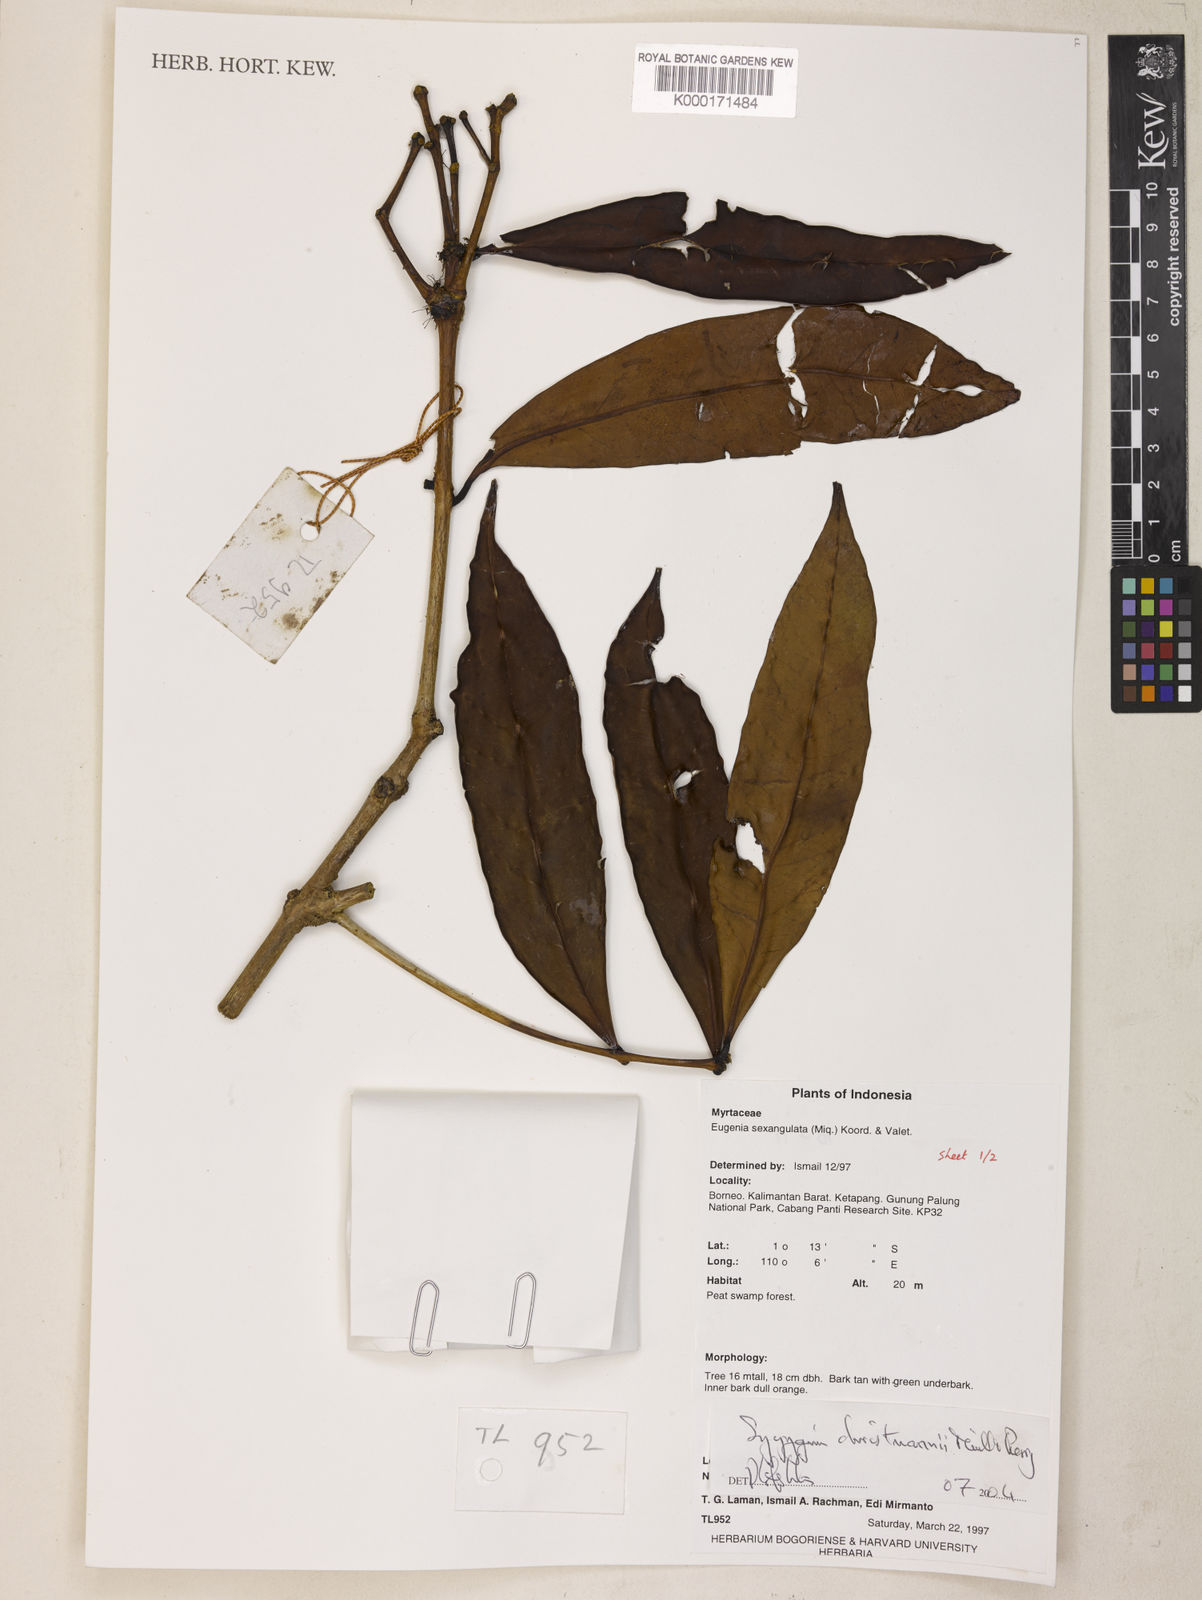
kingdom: Plantae
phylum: Tracheophyta
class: Magnoliopsida
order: Myrtales
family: Myrtaceae
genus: Syzygium
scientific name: Syzygium christmannii
